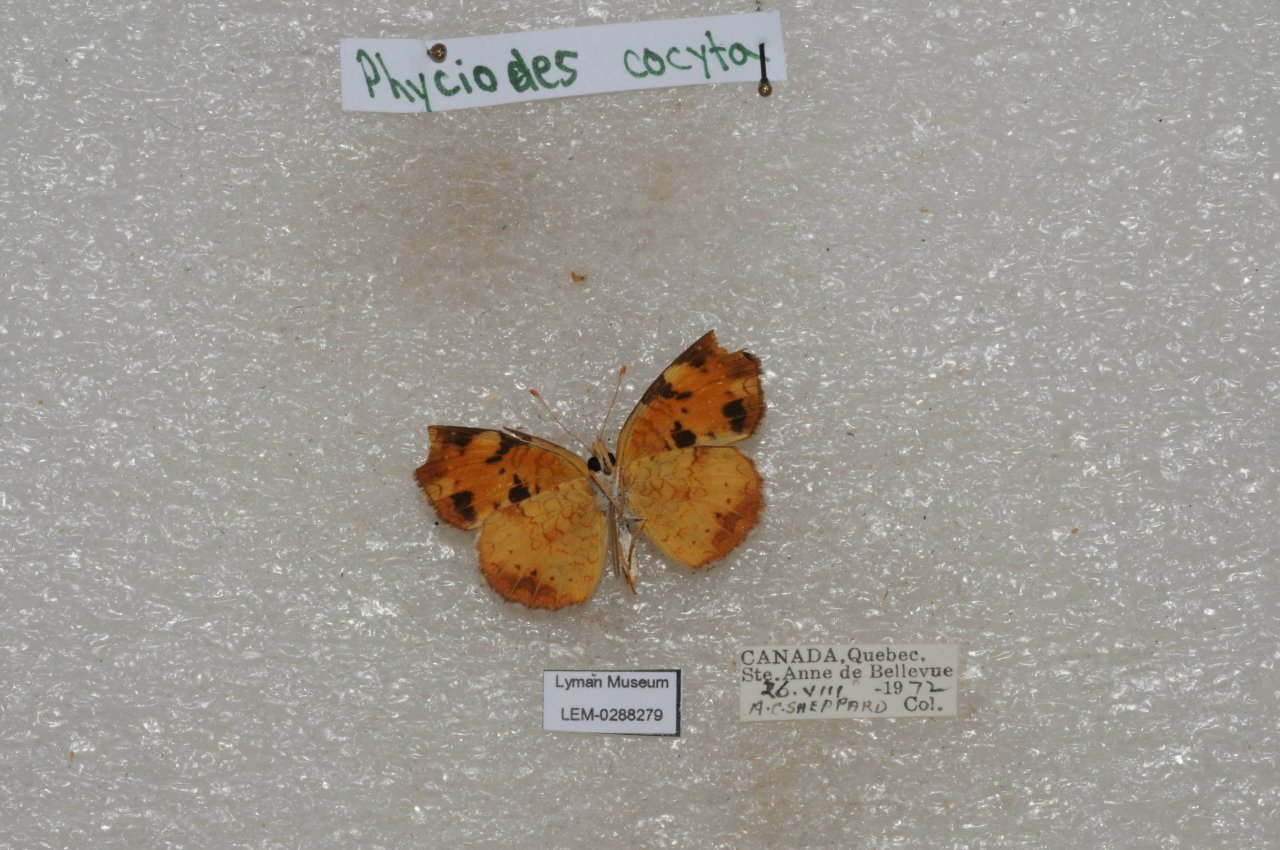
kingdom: Animalia
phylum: Arthropoda
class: Insecta
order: Lepidoptera
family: Nymphalidae
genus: Phyciodes
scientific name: Phyciodes tharos
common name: Northern Crescent
